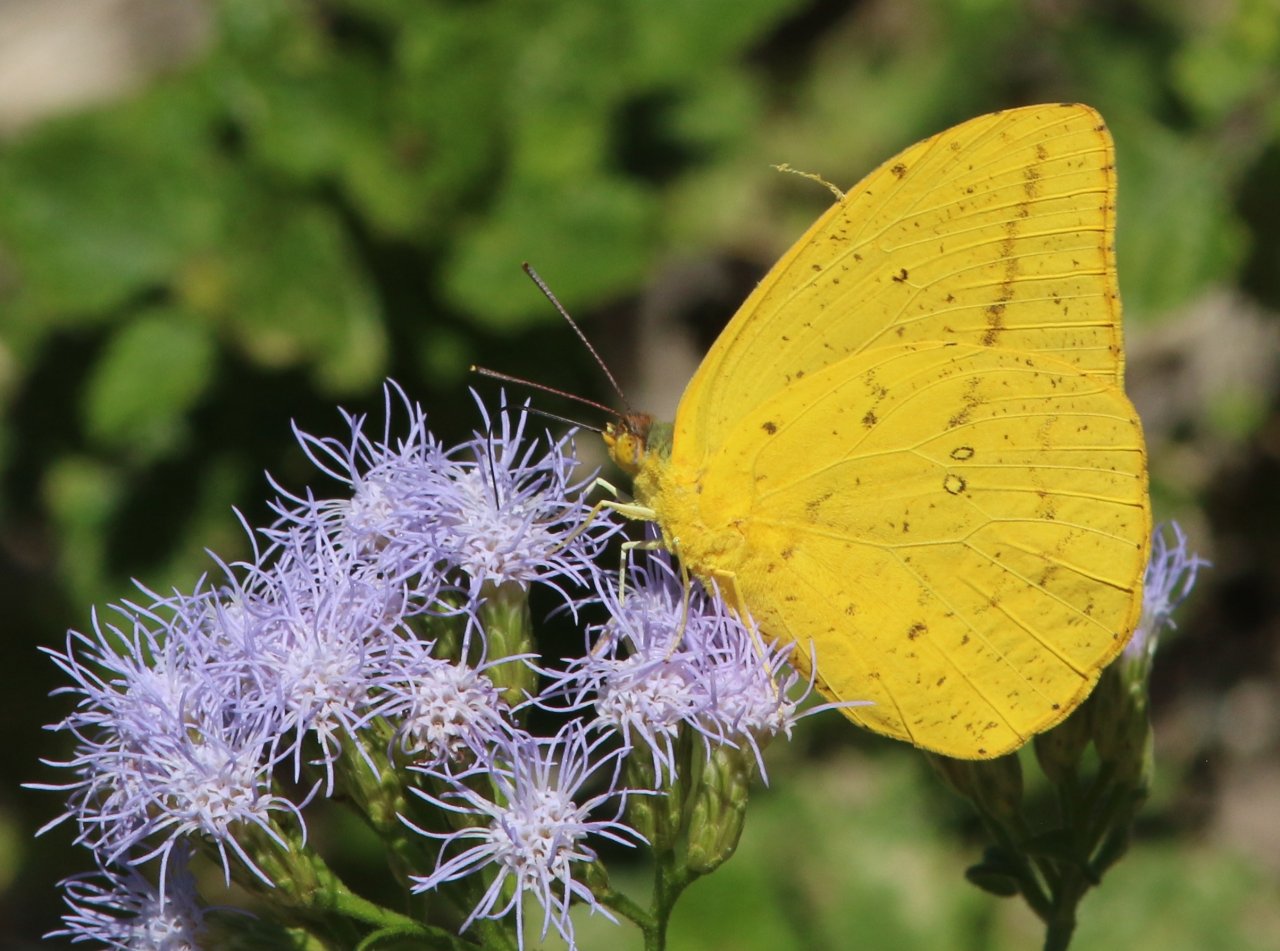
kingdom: Animalia
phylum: Arthropoda
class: Insecta
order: Lepidoptera
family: Pieridae
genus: Phoebis
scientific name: Phoebis agarithe
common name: Large Orange Sulphur
